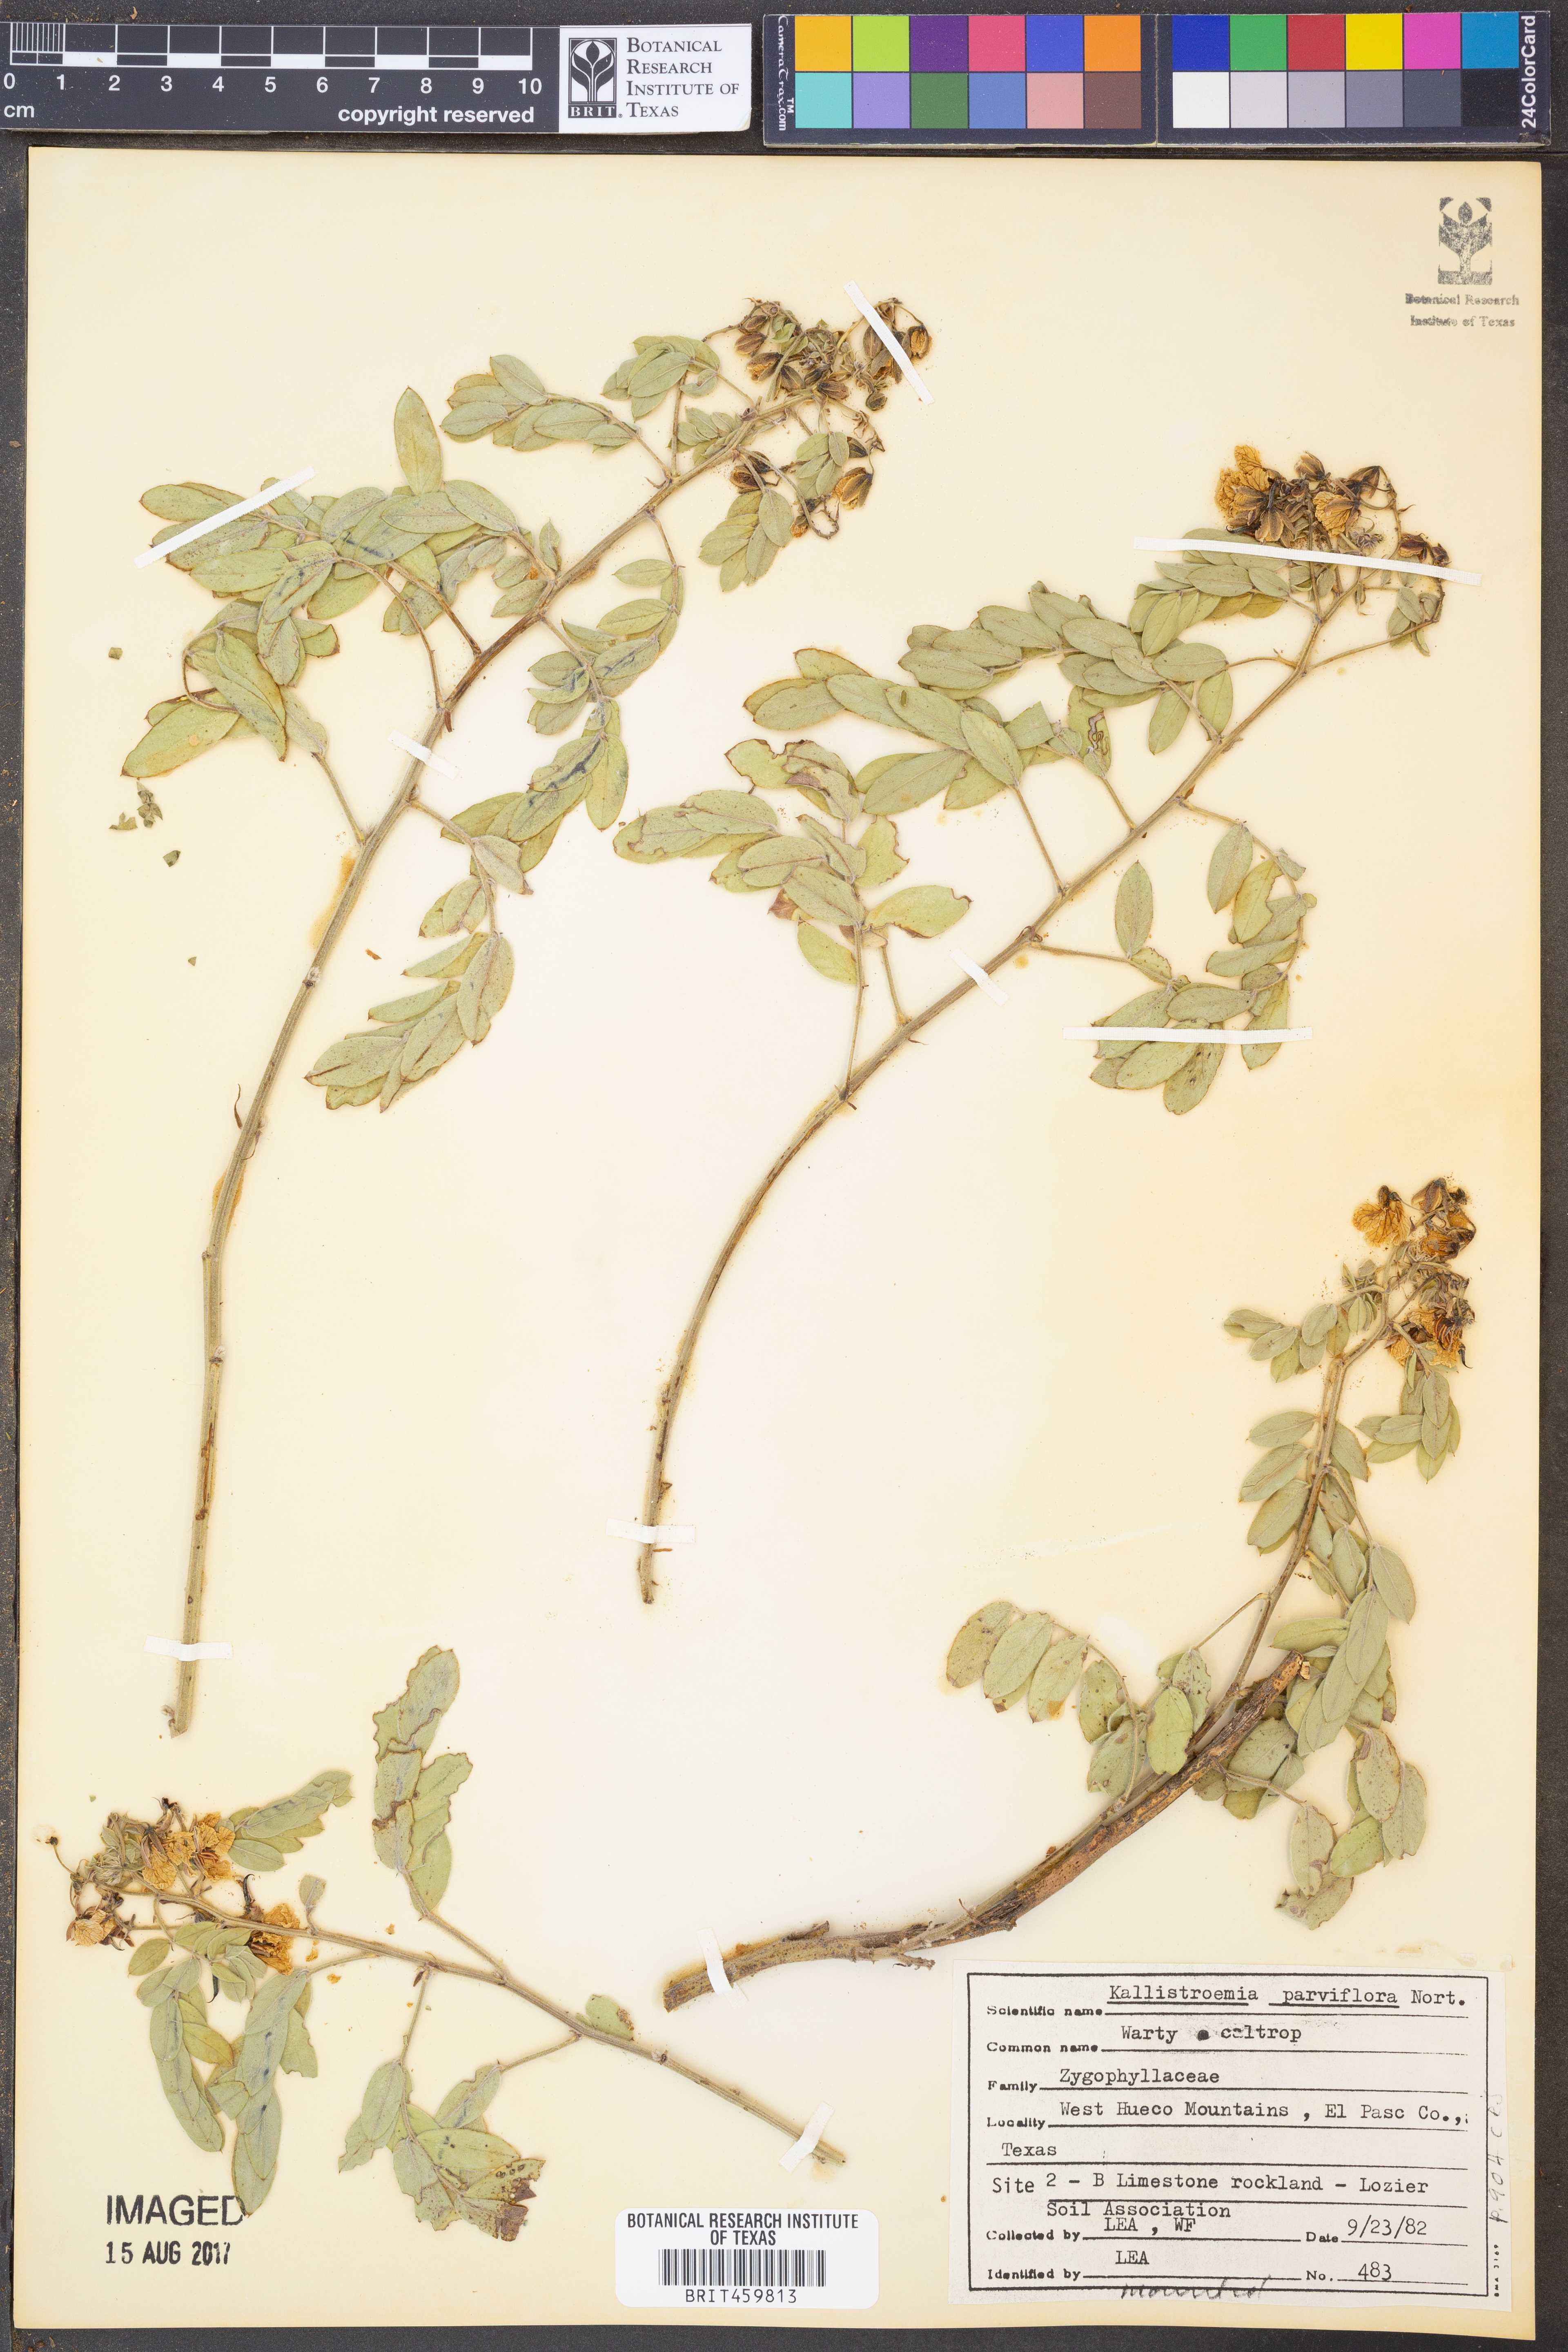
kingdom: Plantae
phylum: Tracheophyta
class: Magnoliopsida
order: Zygophyllales
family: Zygophyllaceae
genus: Kallstroemia
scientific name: Kallstroemia parviflora
